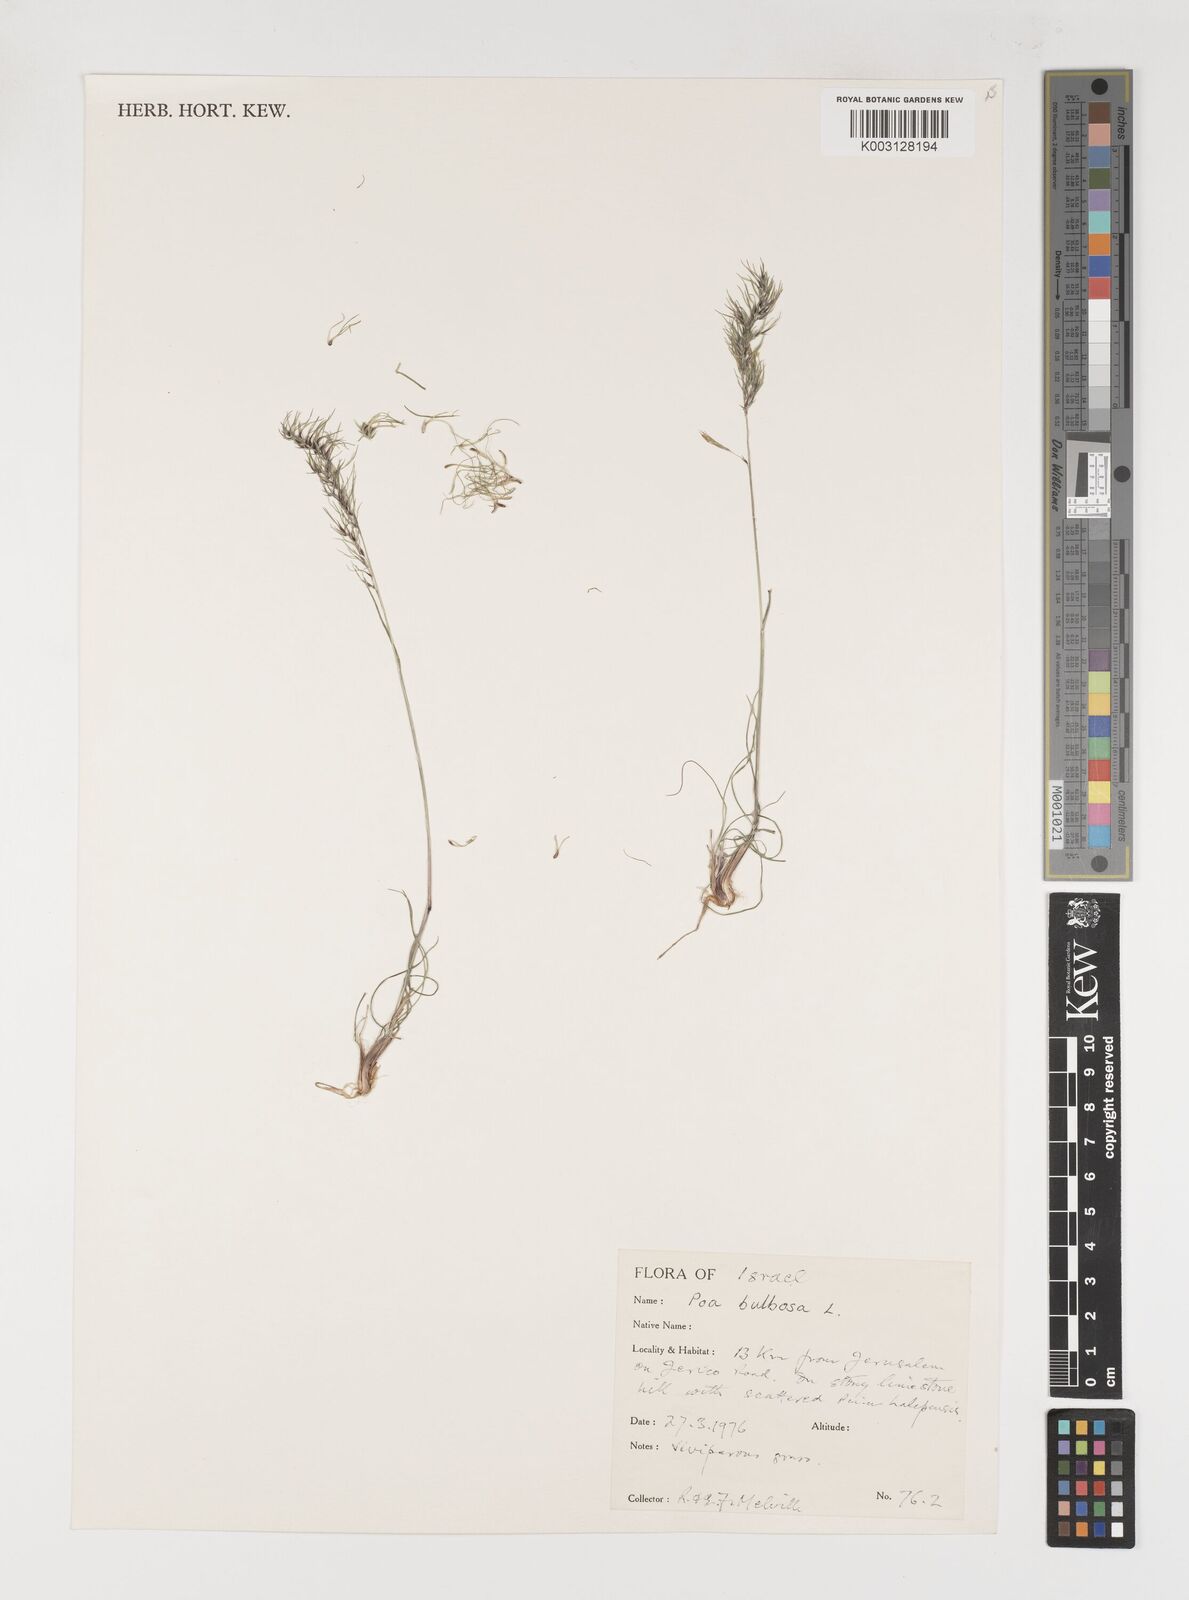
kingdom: Plantae
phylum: Tracheophyta
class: Liliopsida
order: Poales
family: Poaceae
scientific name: Poaceae
